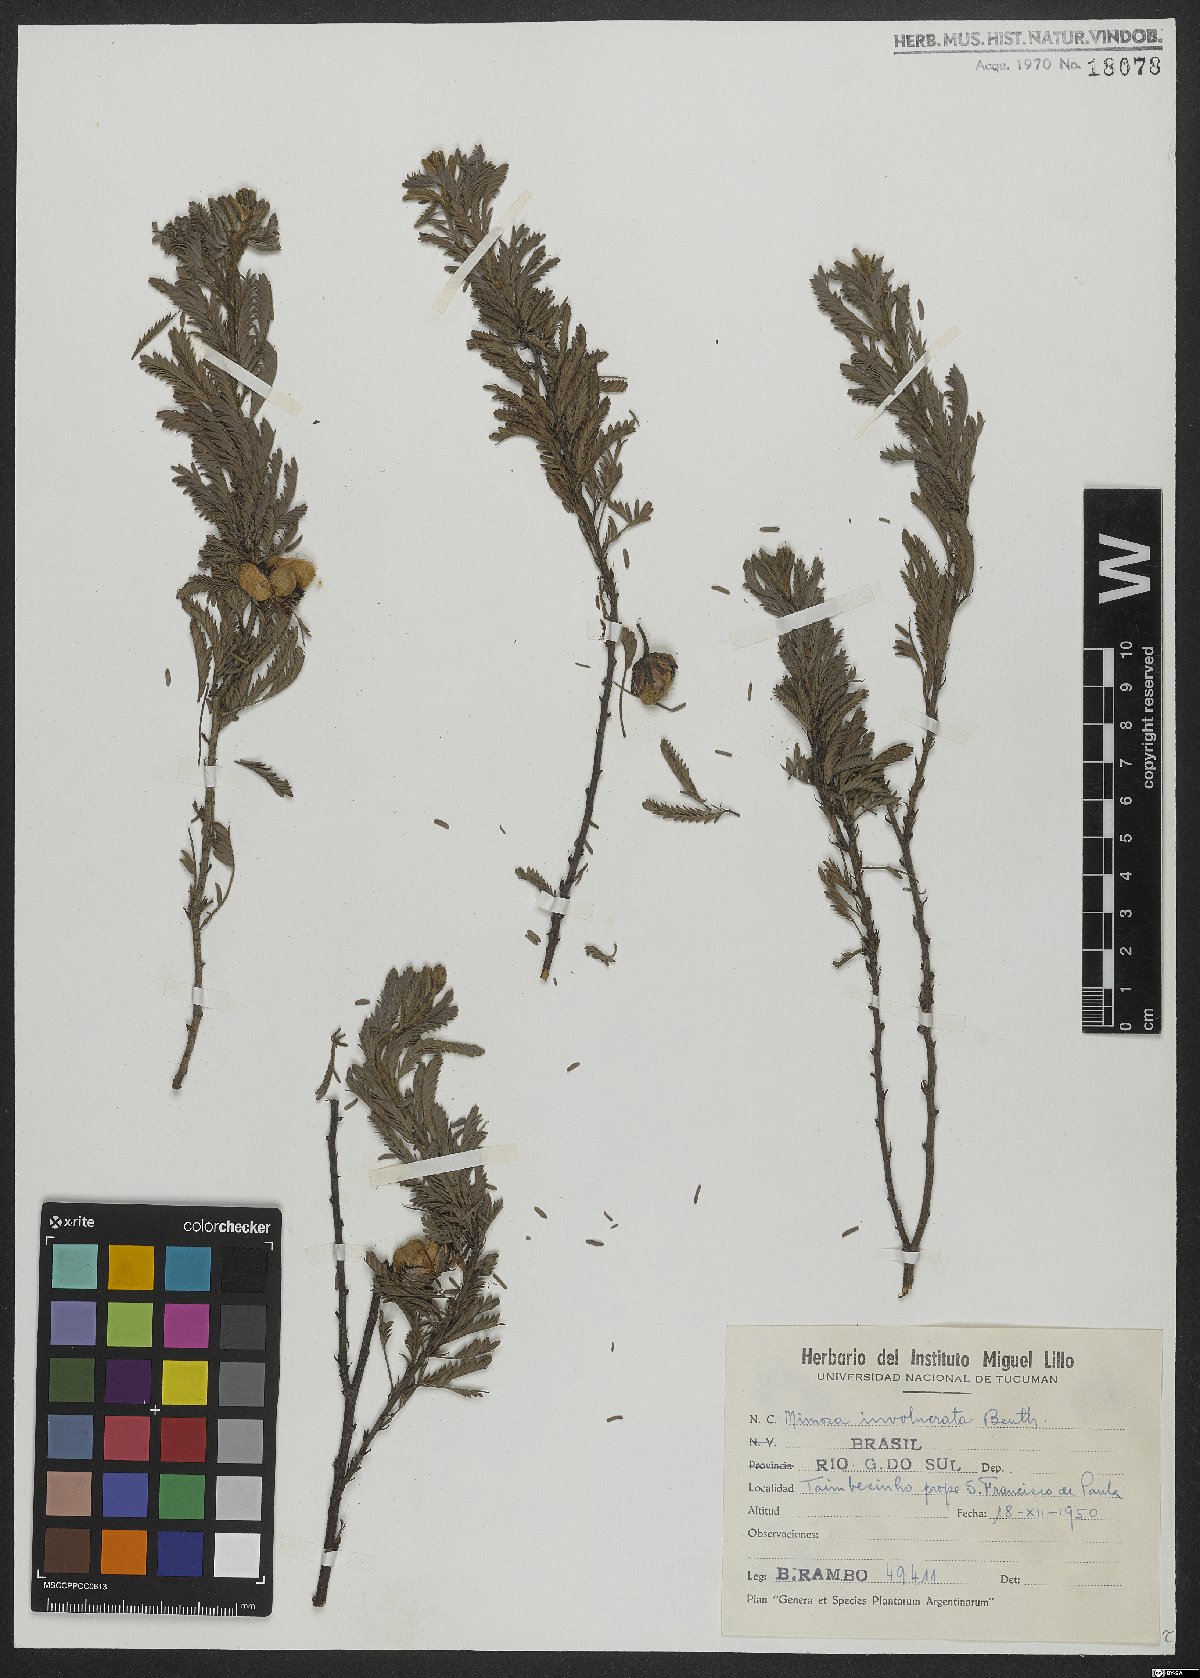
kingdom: Plantae
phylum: Tracheophyta
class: Magnoliopsida
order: Fabales
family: Fabaceae
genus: Mimosa
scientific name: Mimosa involucrata
